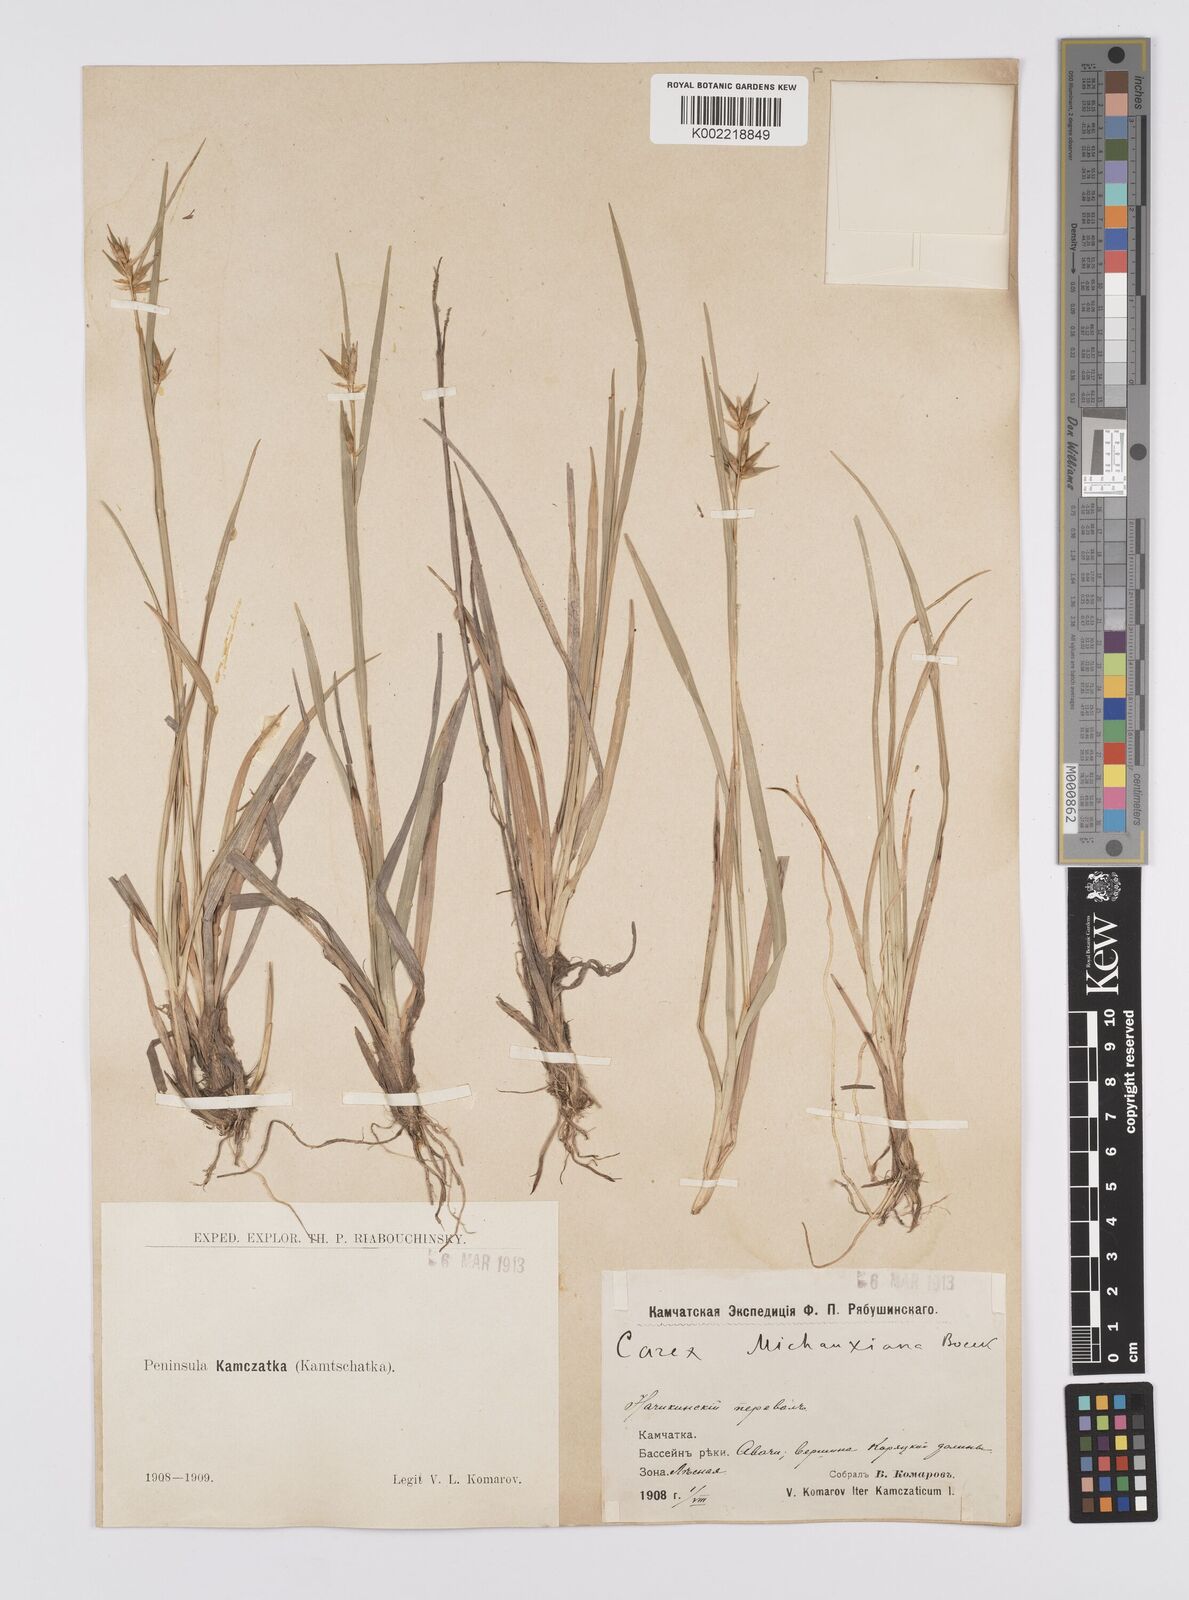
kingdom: Plantae
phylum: Tracheophyta
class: Liliopsida
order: Poales
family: Cyperaceae
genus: Carex
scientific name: Carex michauxiana
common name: Michaux's sedge
